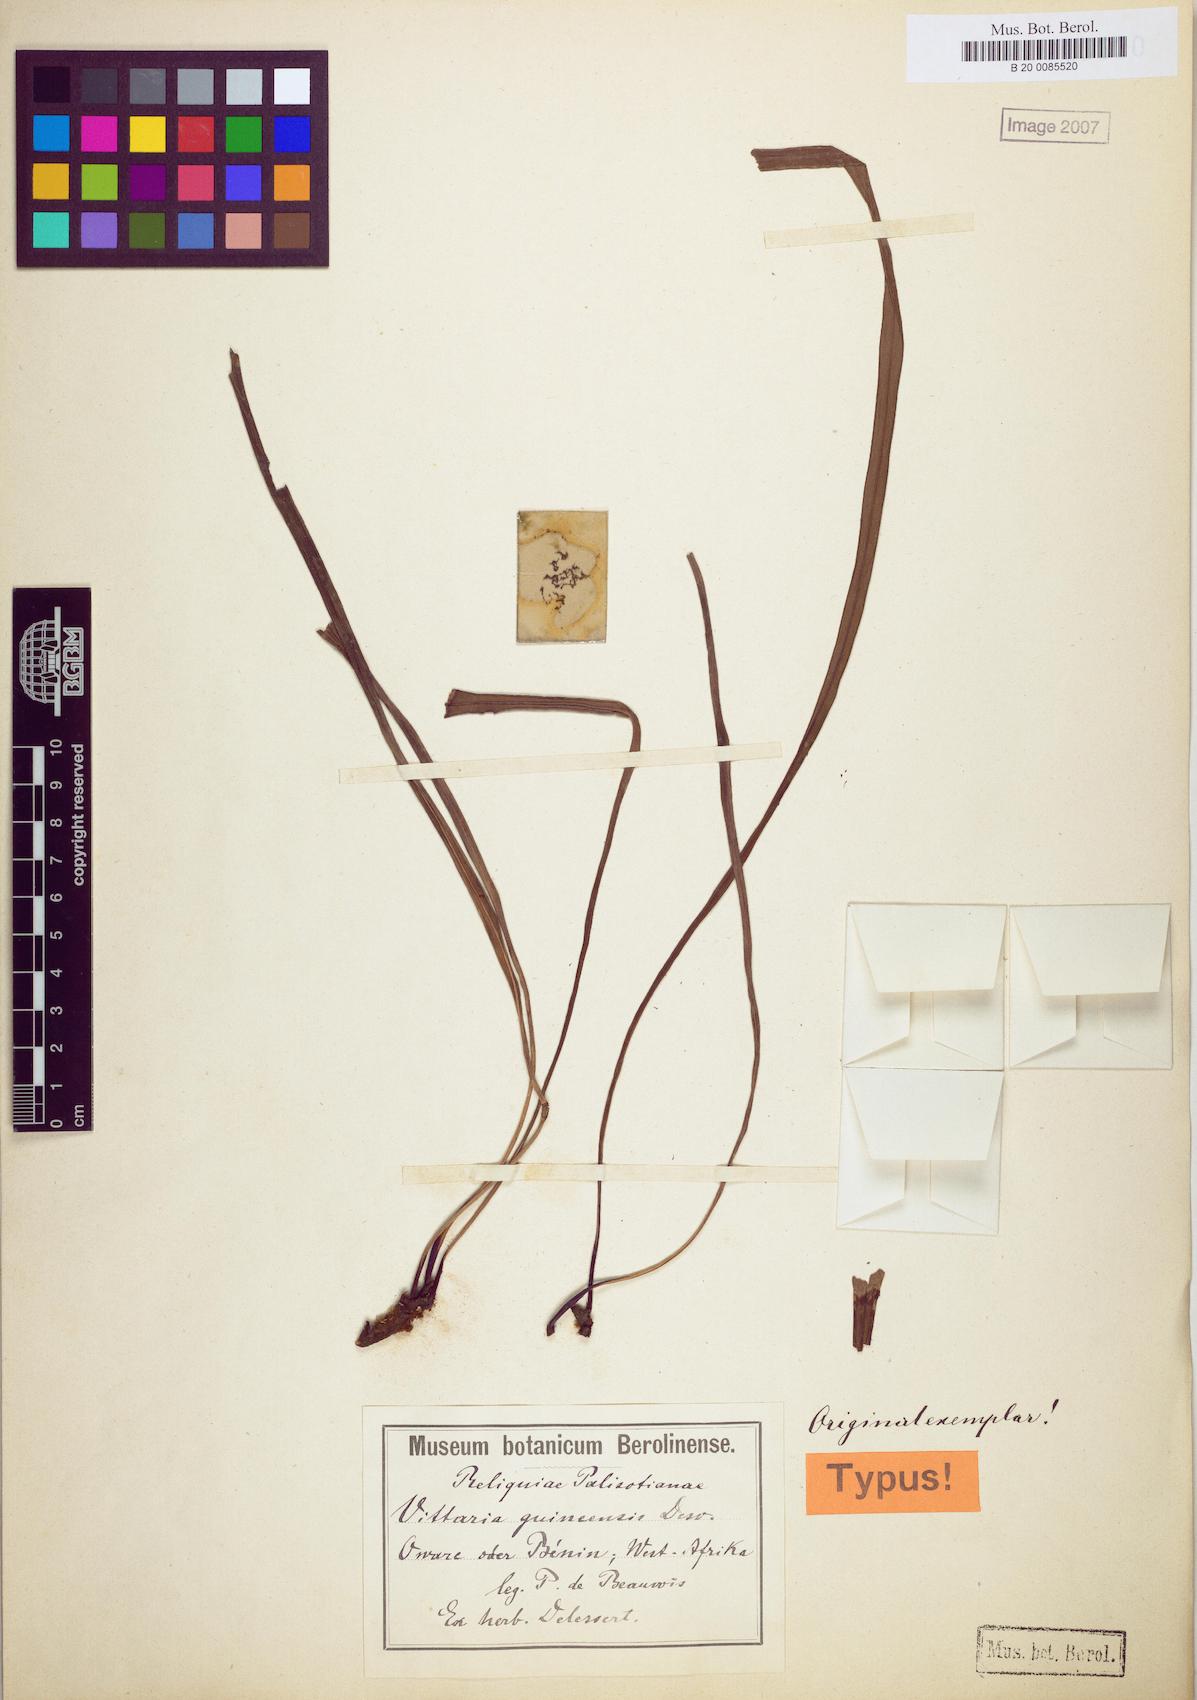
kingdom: Plantae
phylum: Tracheophyta
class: Polypodiopsida
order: Polypodiales
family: Pteridaceae
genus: Haplopteris
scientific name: Haplopteris guineensis
